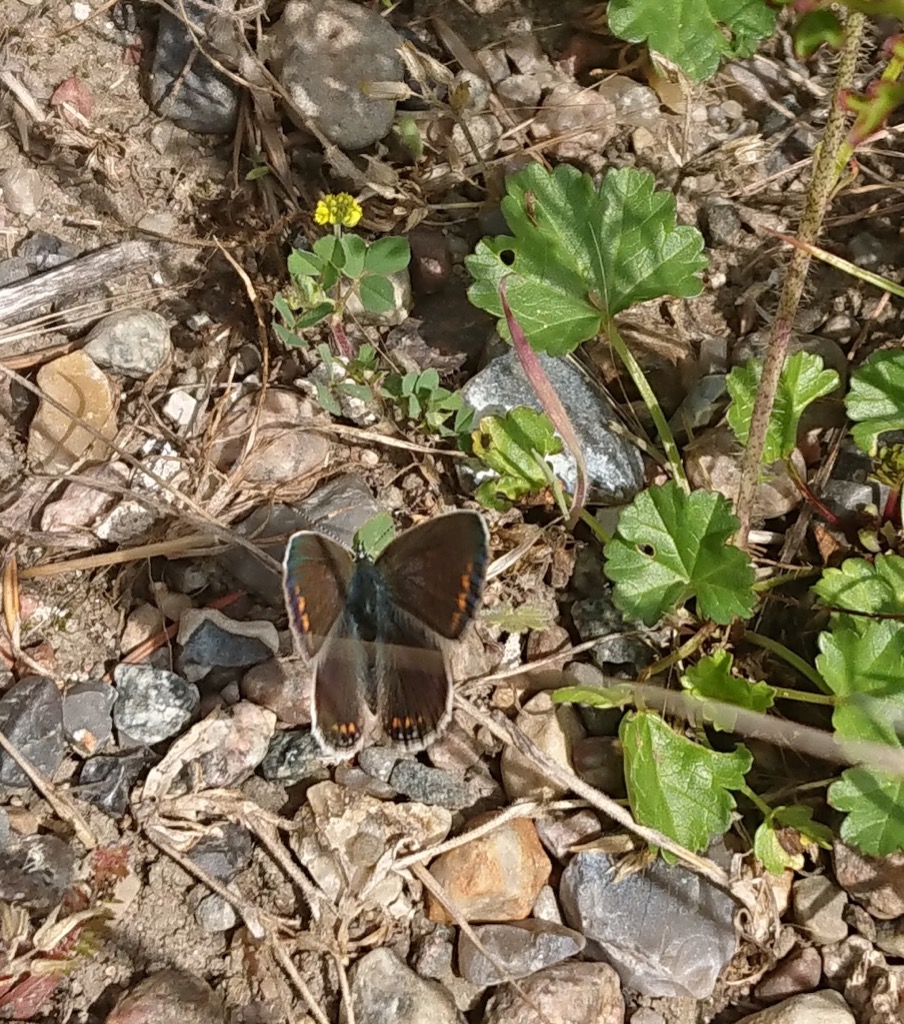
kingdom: Animalia
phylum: Arthropoda
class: Insecta
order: Lepidoptera
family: Lycaenidae
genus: Aricia
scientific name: Aricia agestis
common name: Rødplettet blåfugl
